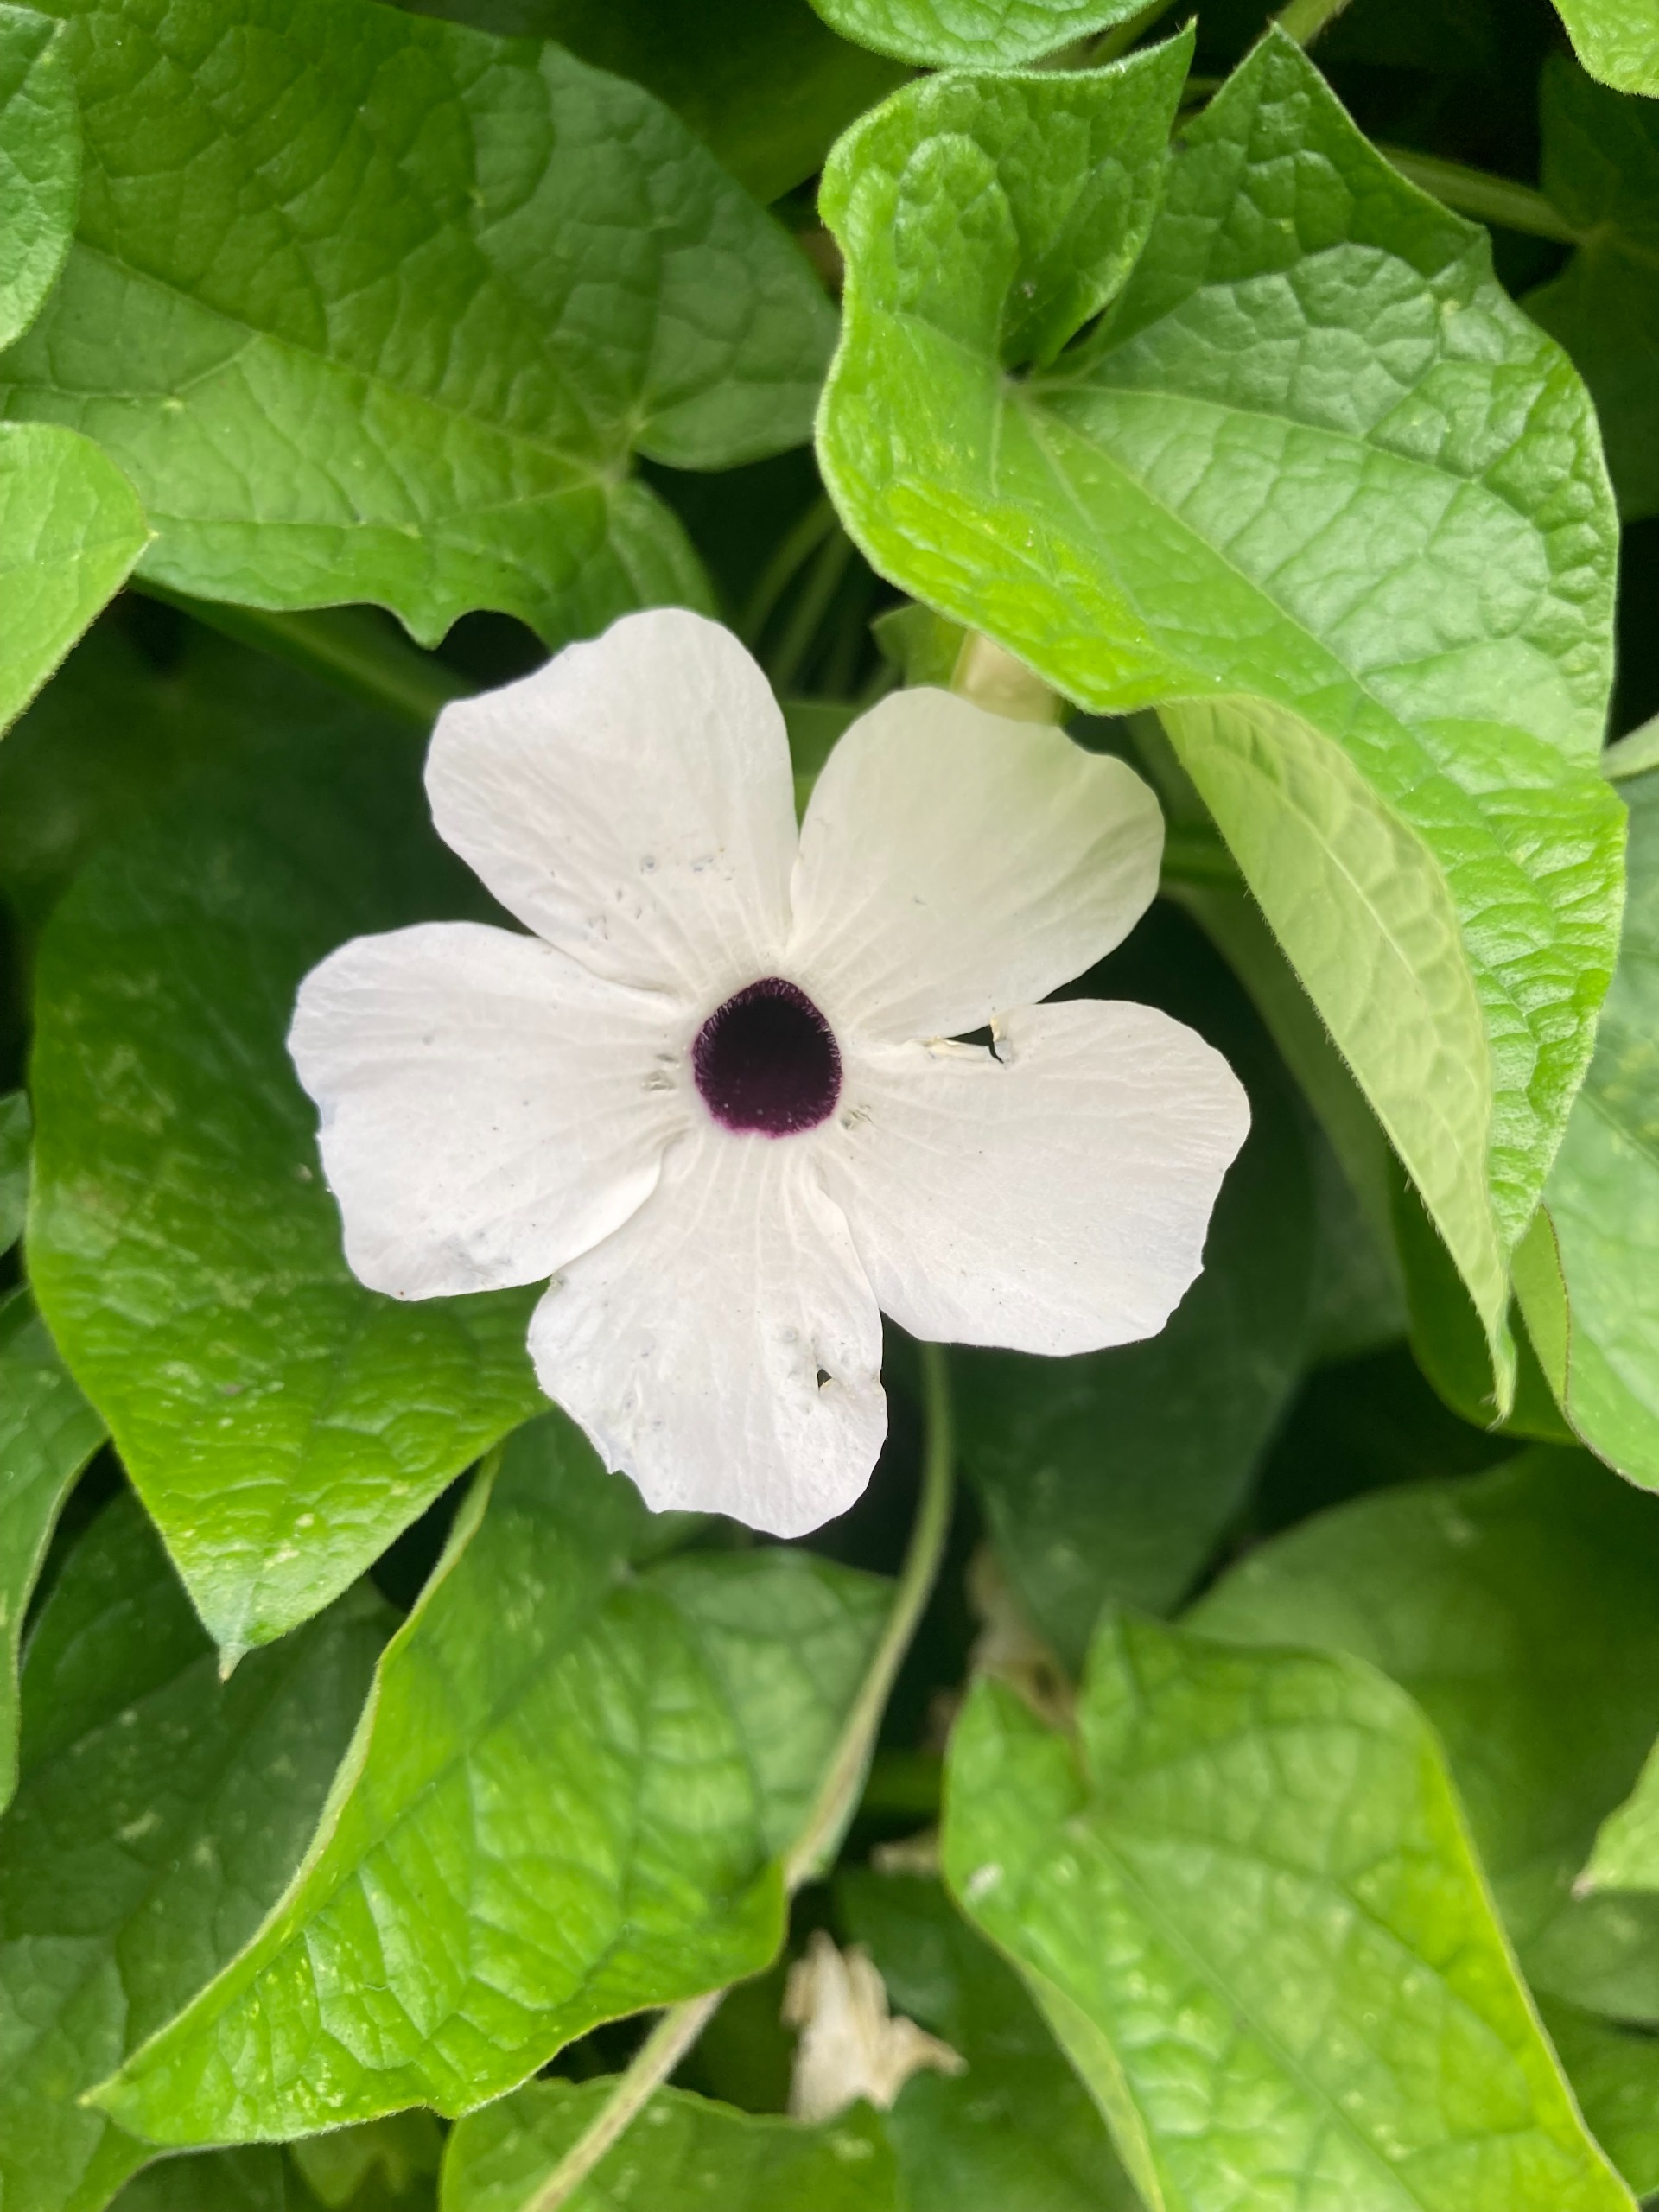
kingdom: Plantae
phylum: Tracheophyta
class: Magnoliopsida
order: Lamiales
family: Acanthaceae
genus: Thunbergia
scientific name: Thunbergia alata
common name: Susanne med det sorte øje
